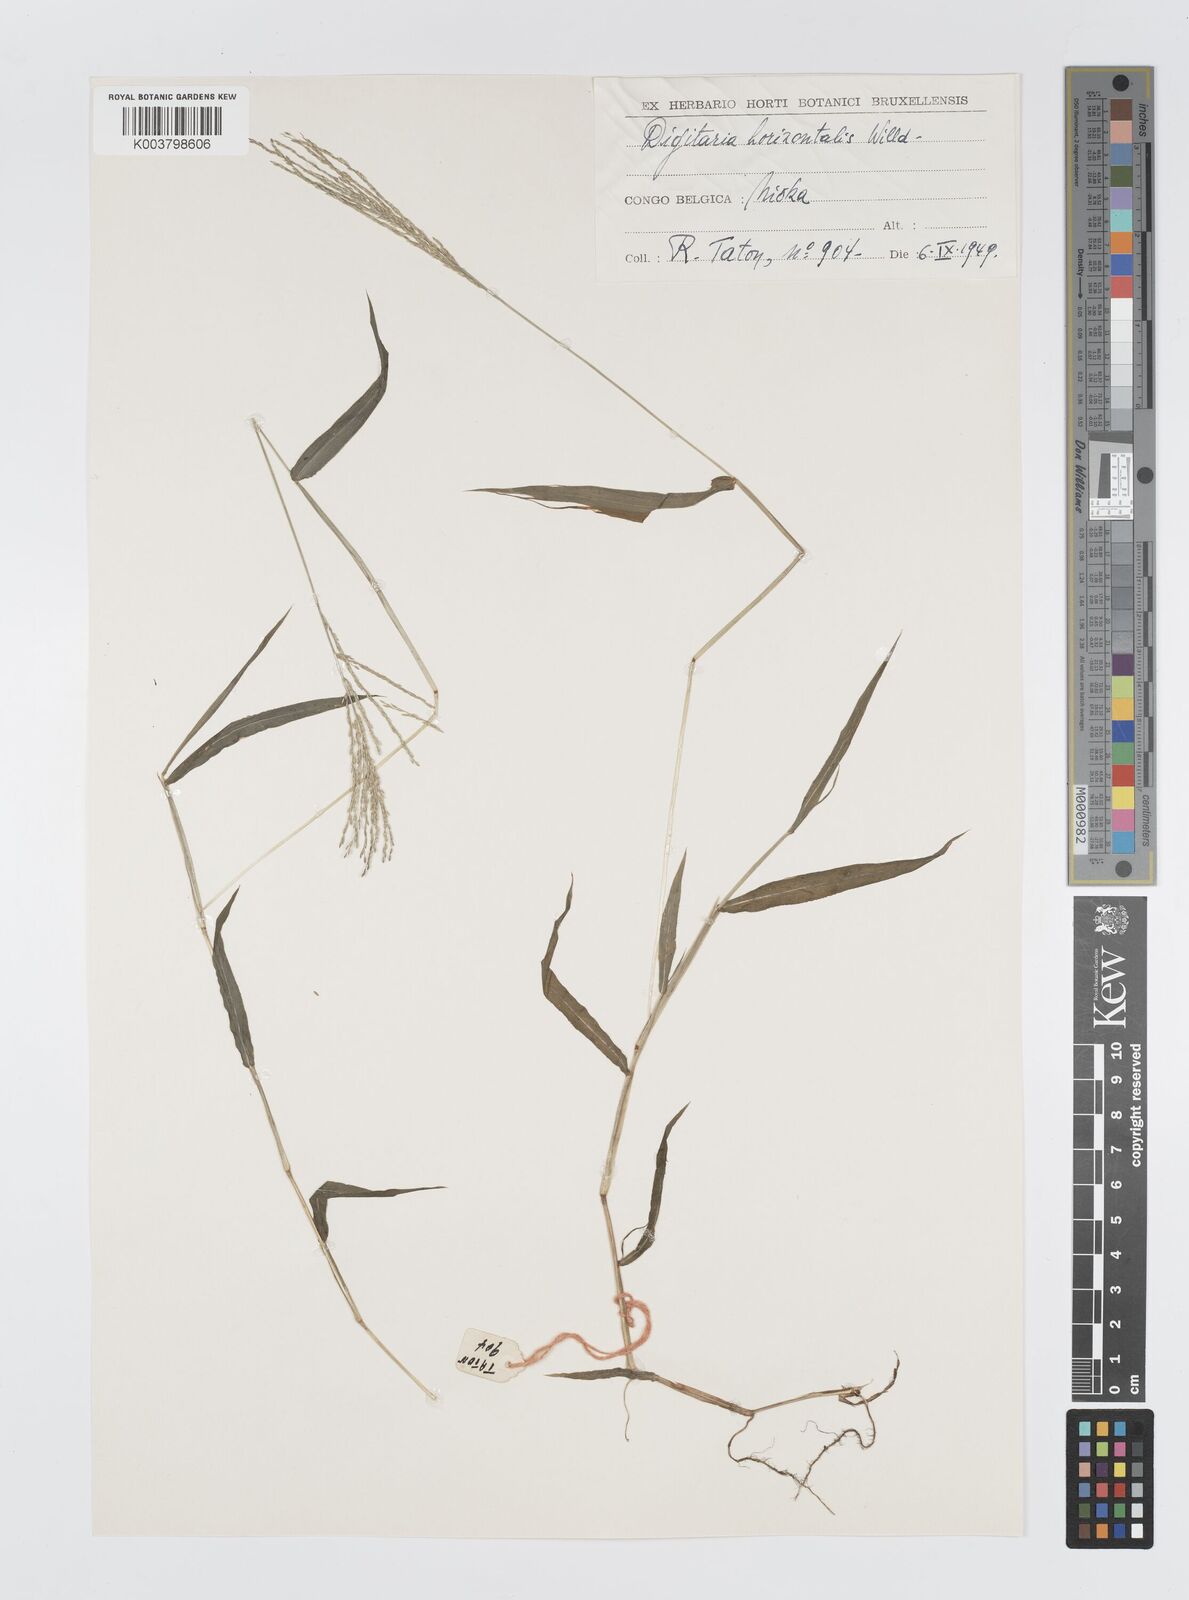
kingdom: Plantae
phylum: Tracheophyta
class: Liliopsida
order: Poales
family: Poaceae
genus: Digitaria
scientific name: Digitaria velutina
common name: Long-plume finger grass
